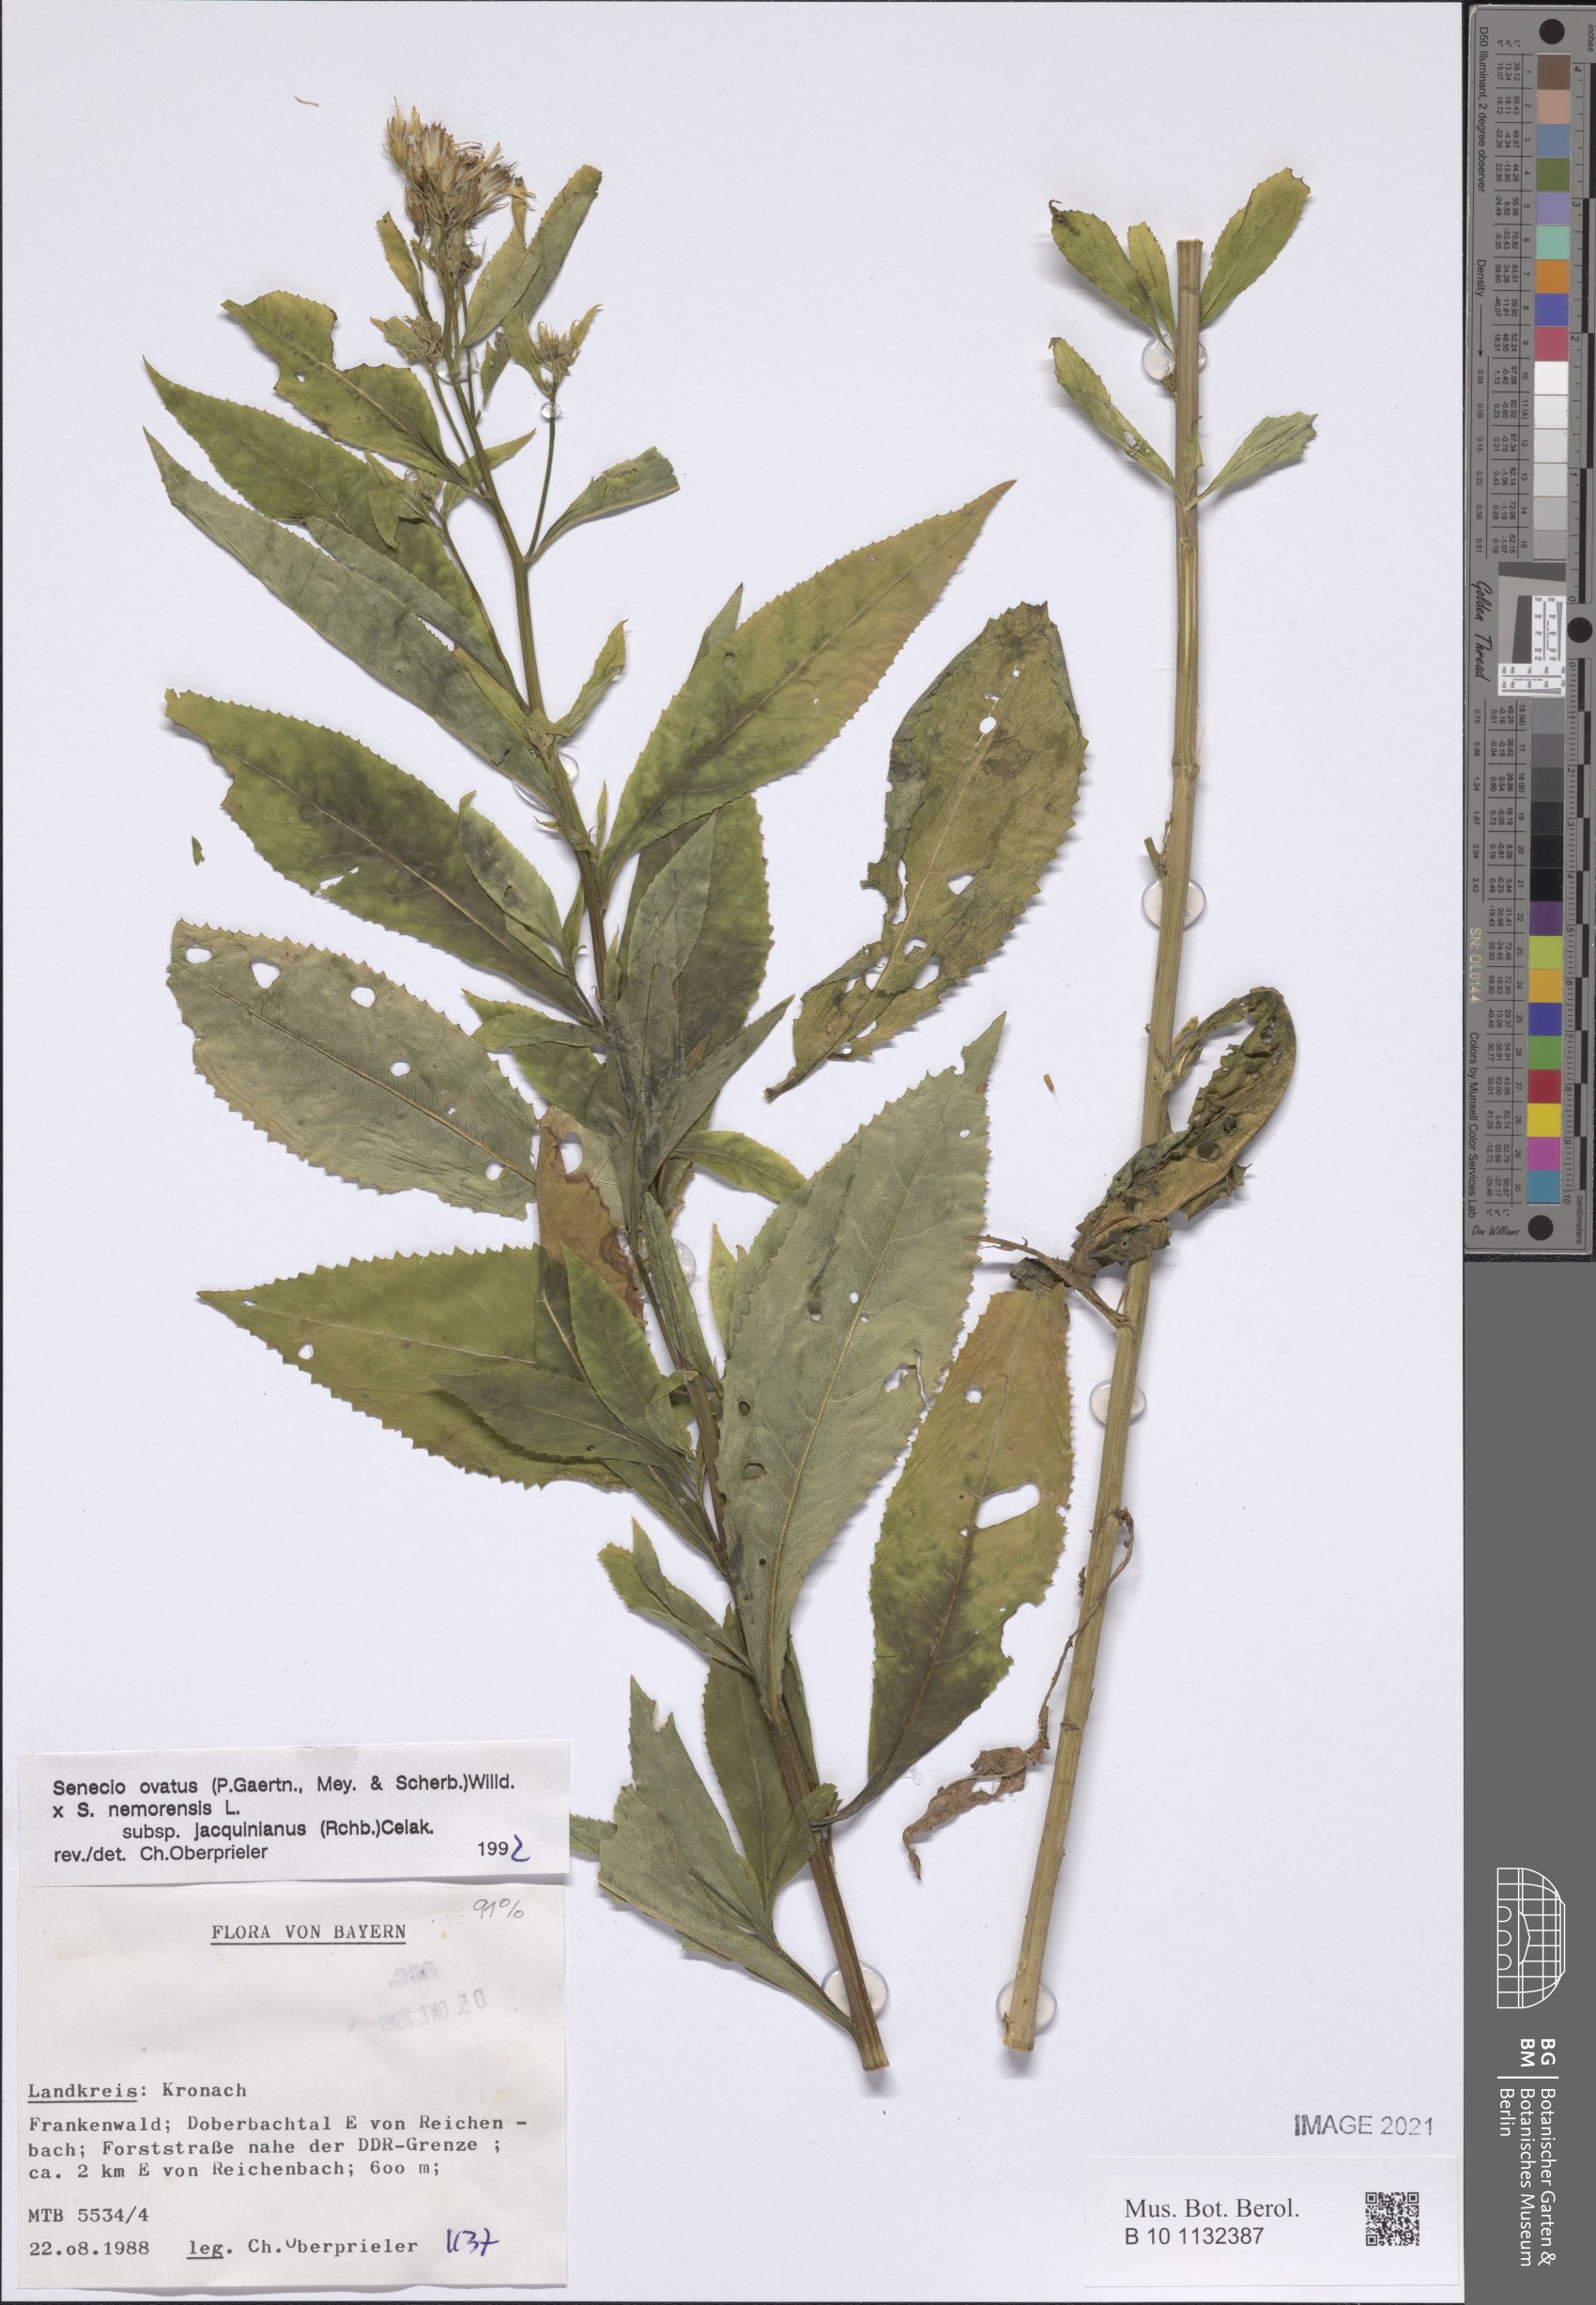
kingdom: Plantae
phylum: Tracheophyta
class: Magnoliopsida
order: Asterales
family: Asteraceae
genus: Senecio
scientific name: Senecio ovatus
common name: Wood ragwort
